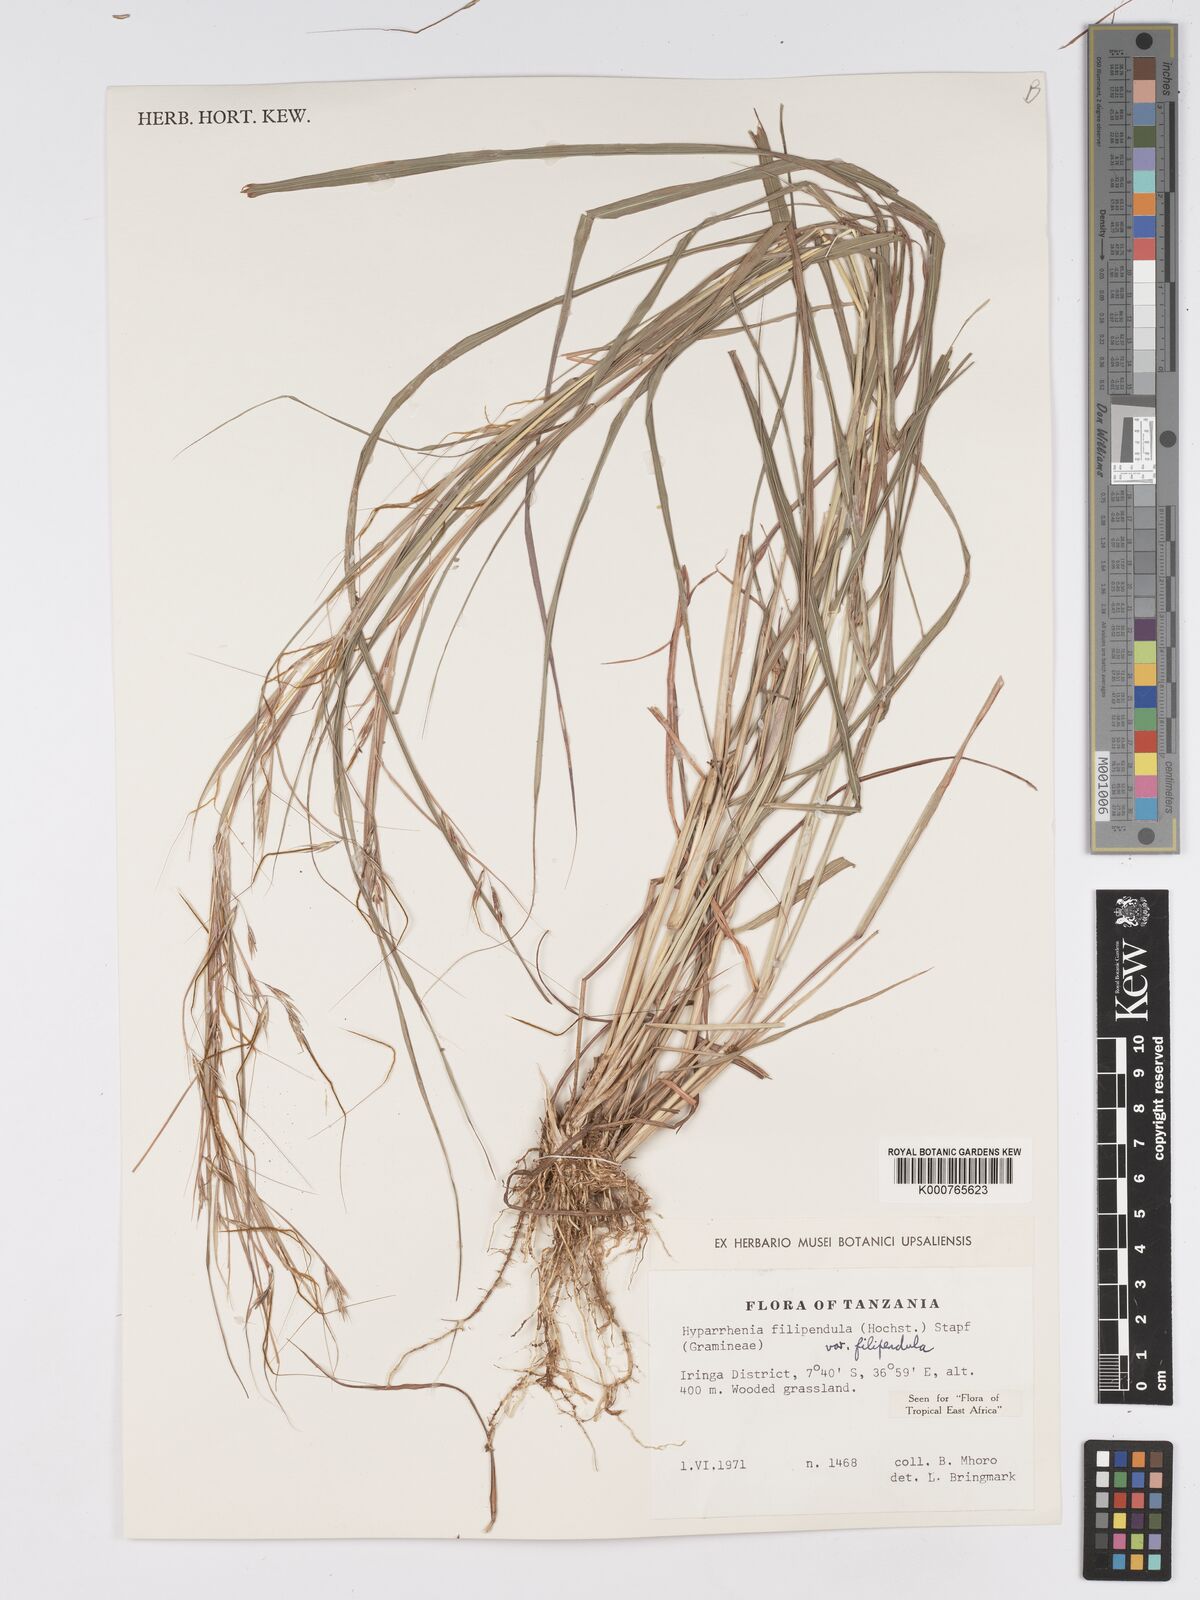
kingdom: Plantae
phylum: Tracheophyta
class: Liliopsida
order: Poales
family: Poaceae
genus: Hyparrhenia
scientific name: Hyparrhenia filipendula
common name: Tambookie grass
